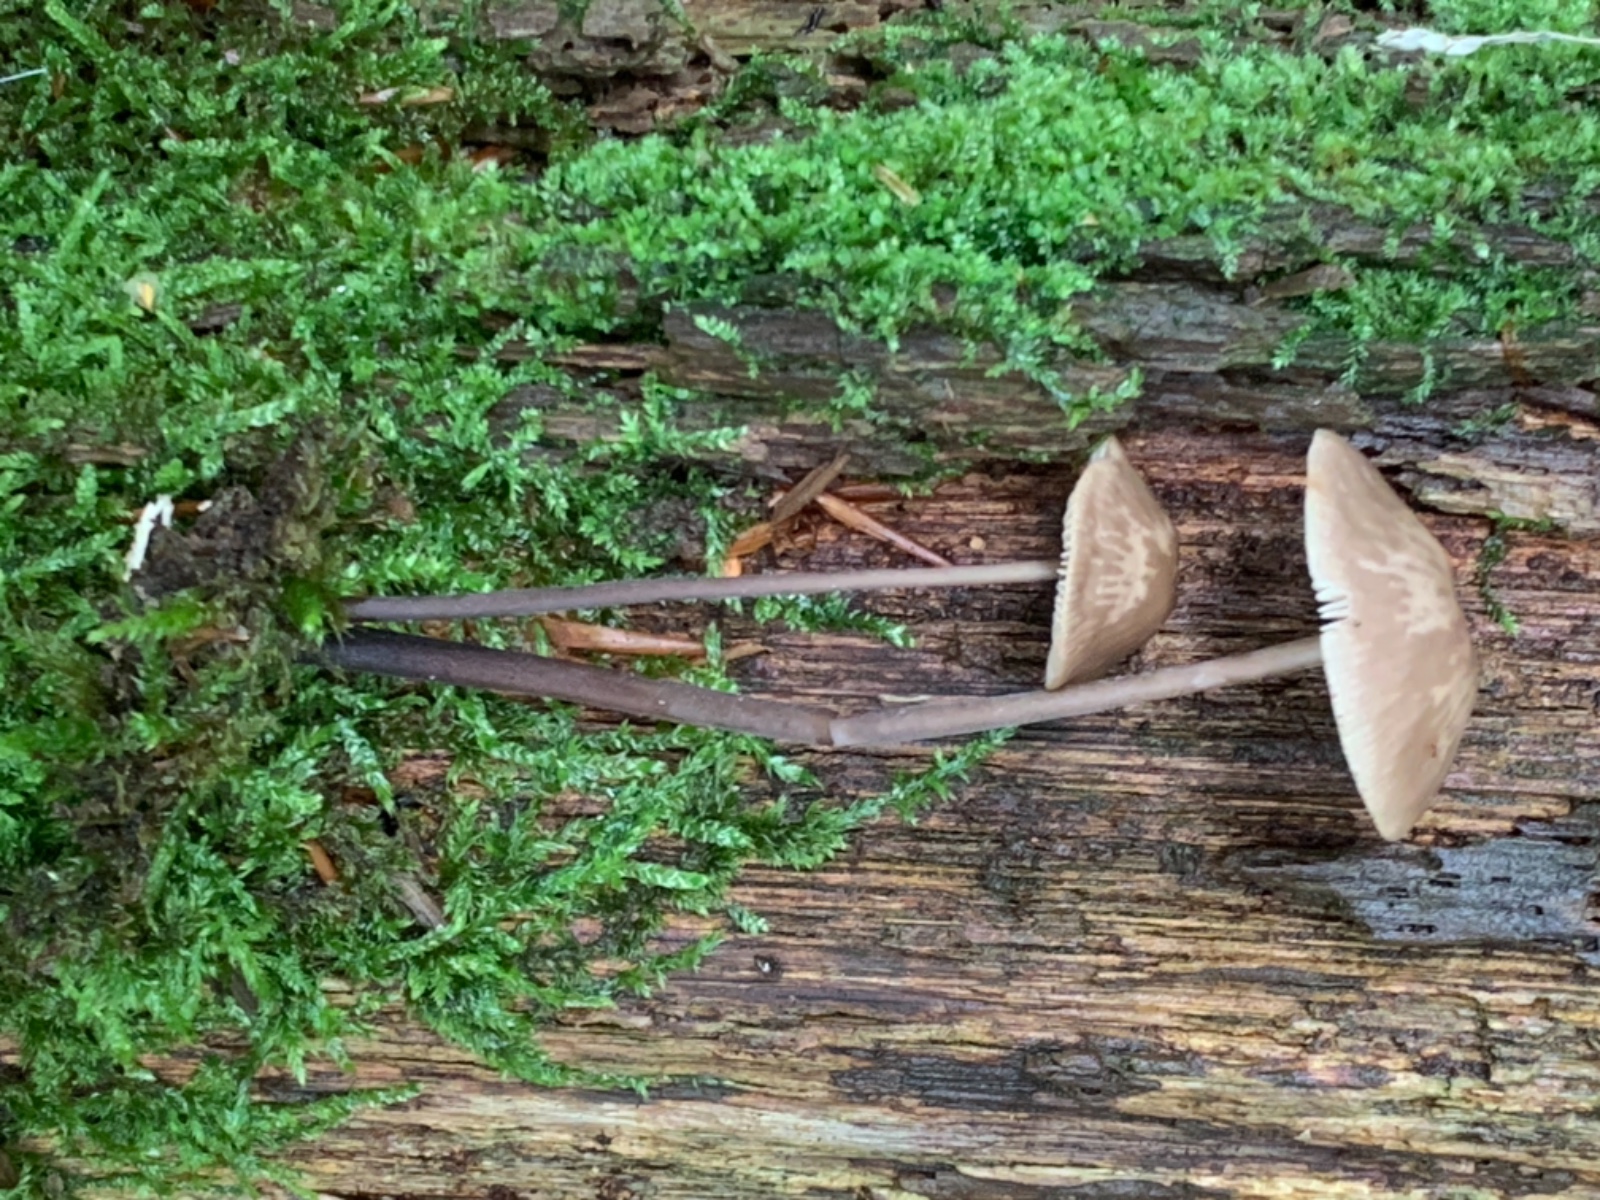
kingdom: Fungi
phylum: Basidiomycota
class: Agaricomycetes
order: Agaricales
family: Omphalotaceae
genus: Mycetinis
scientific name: Mycetinis alliaceus
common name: stor løghat
